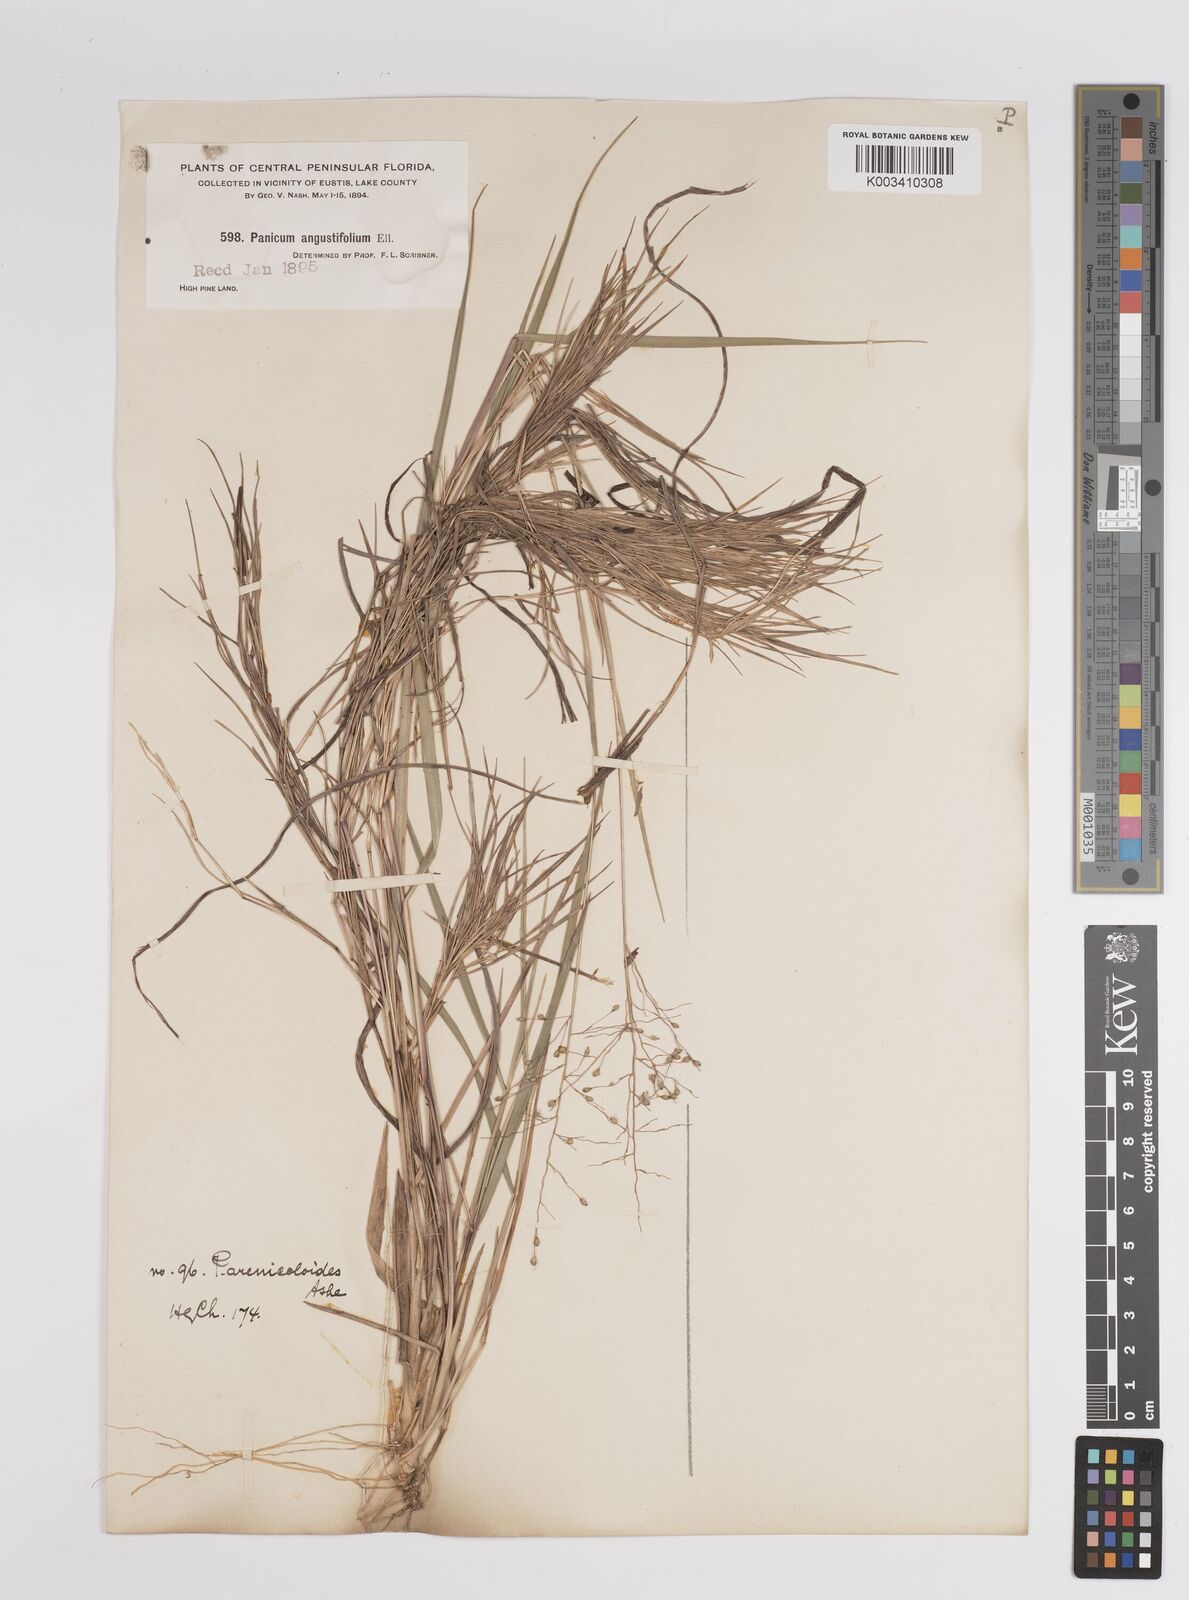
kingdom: Plantae
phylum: Tracheophyta
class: Liliopsida
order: Poales
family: Poaceae
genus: Dichanthelium
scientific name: Dichanthelium aciculare
